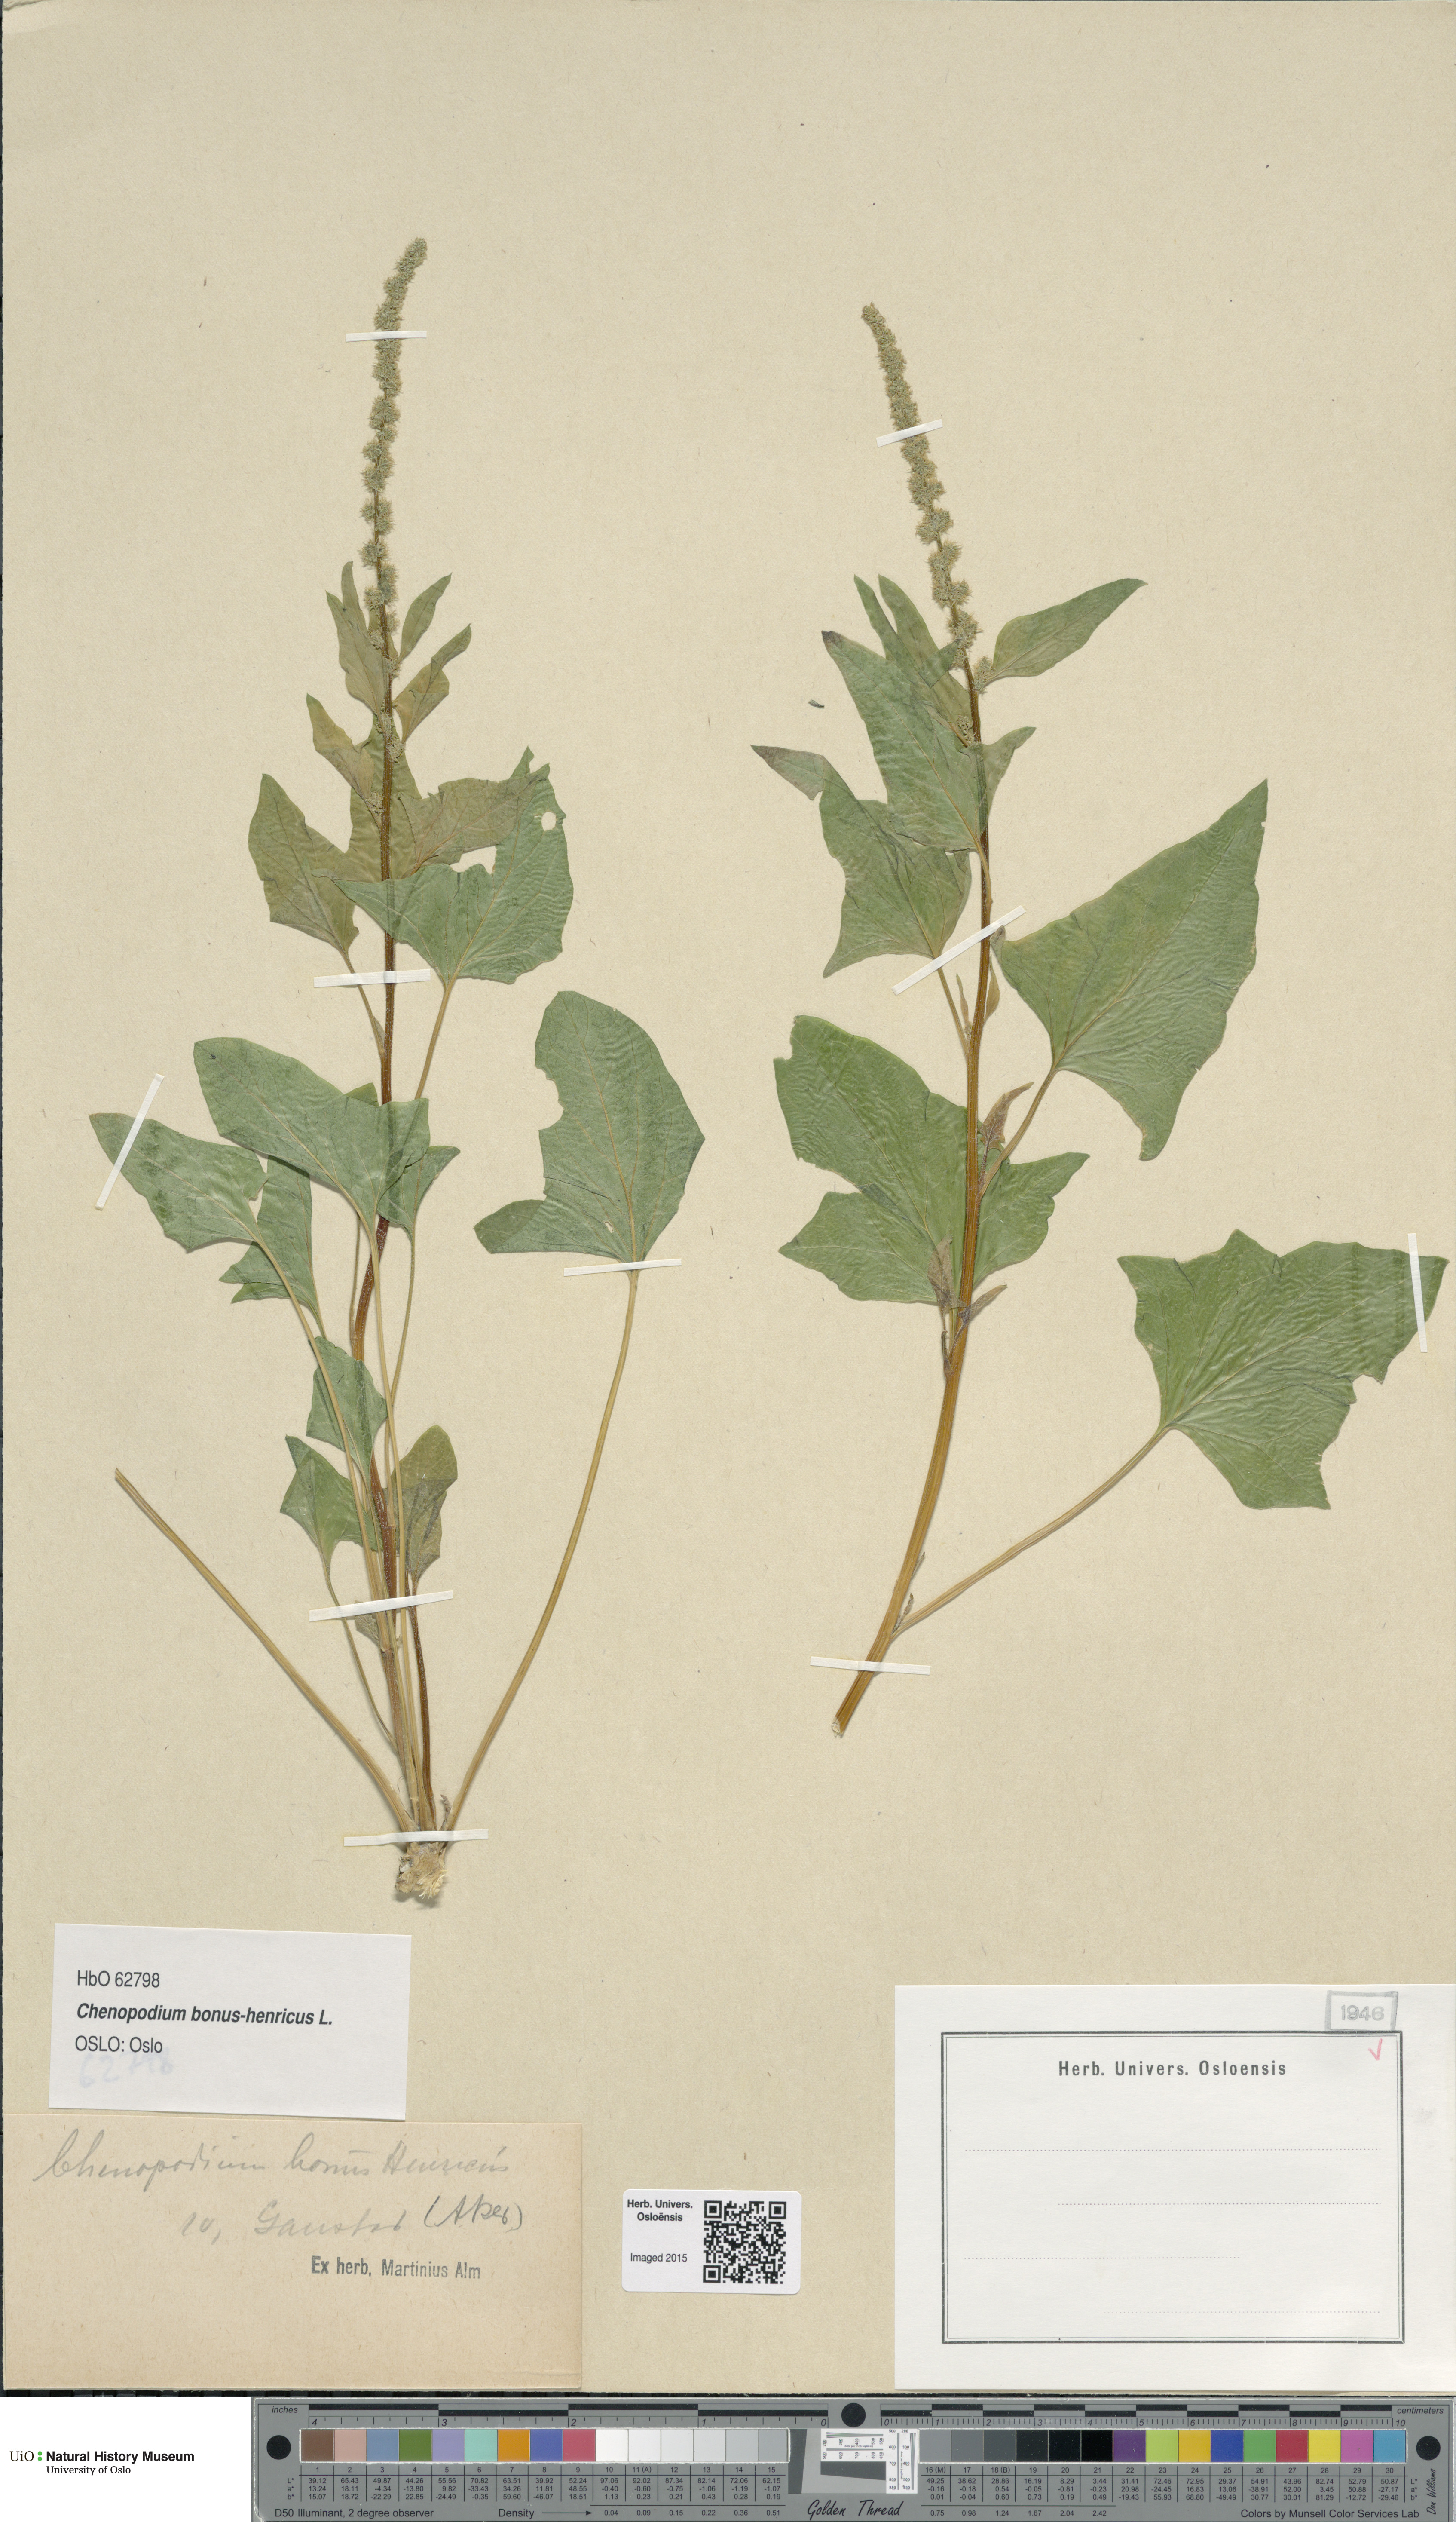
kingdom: Plantae
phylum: Tracheophyta
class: Magnoliopsida
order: Caryophyllales
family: Amaranthaceae
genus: Blitum
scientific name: Blitum bonus-henricus
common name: Good king henry
